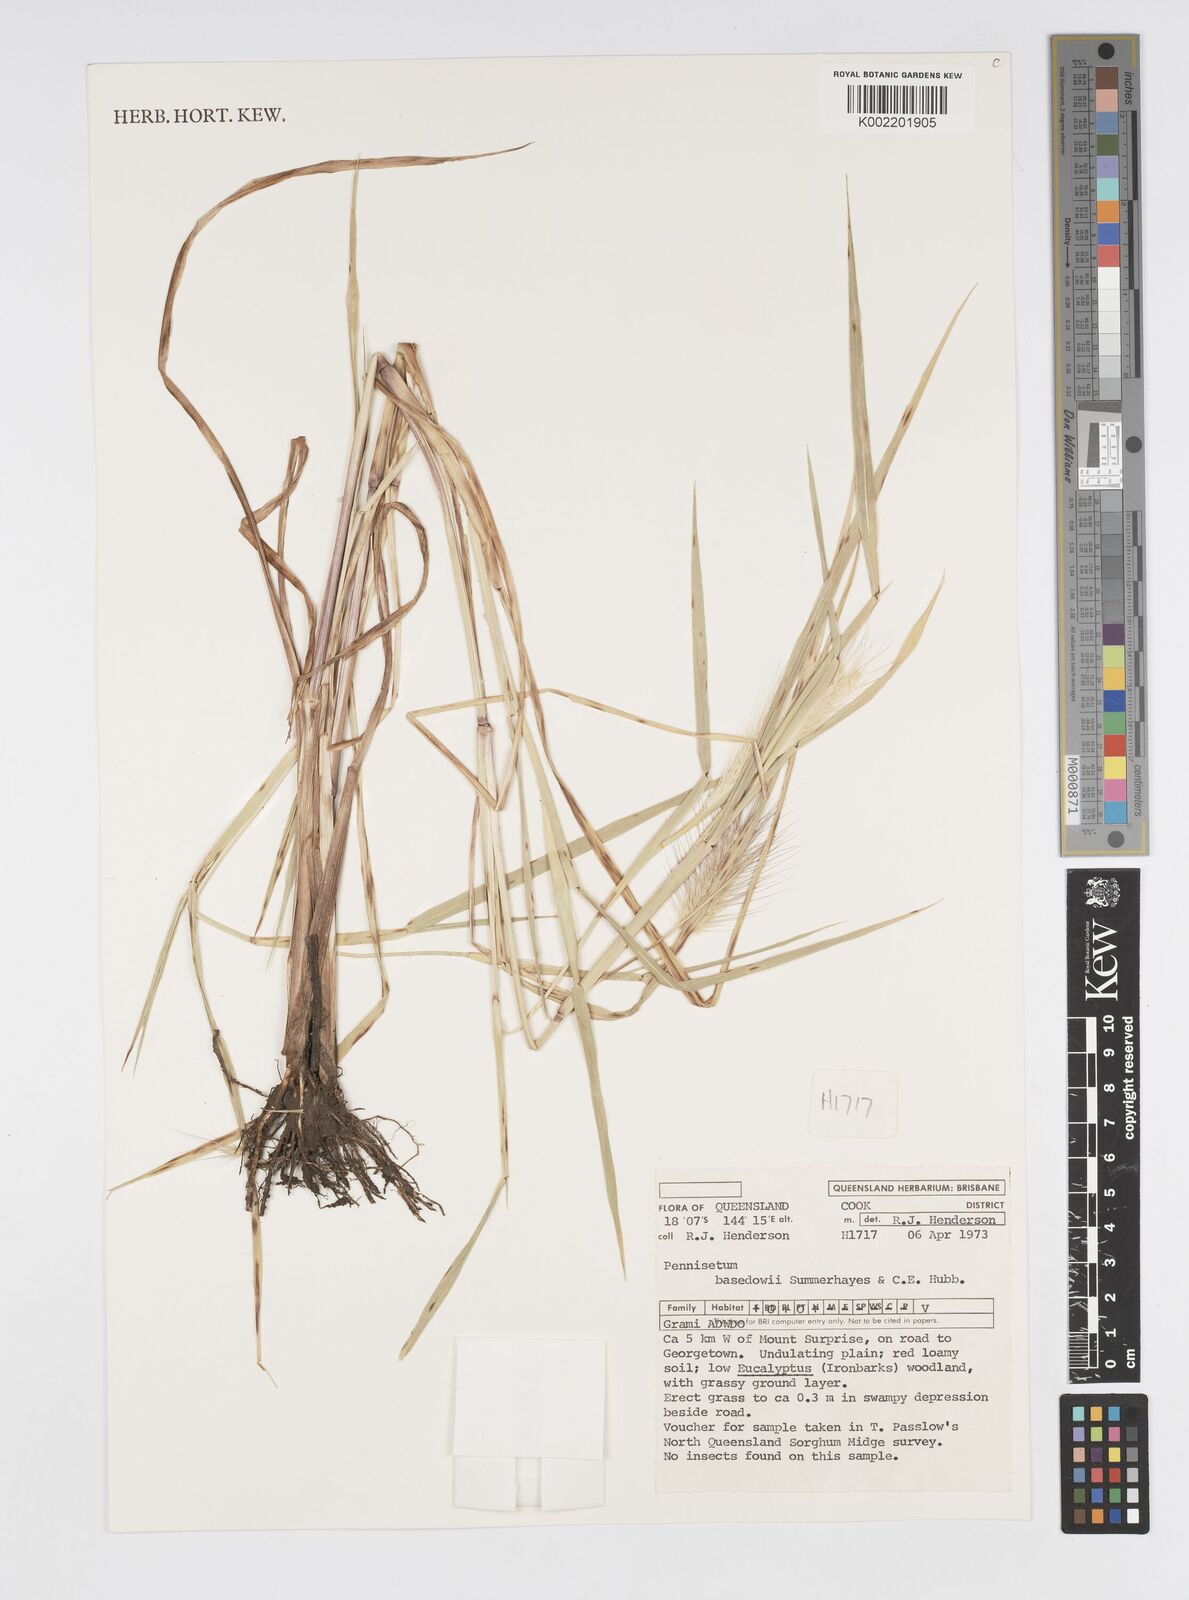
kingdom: Plantae
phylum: Tracheophyta
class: Liliopsida
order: Poales
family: Poaceae
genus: Cenchrus
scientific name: Cenchrus basedowii
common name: Asbestos grass
